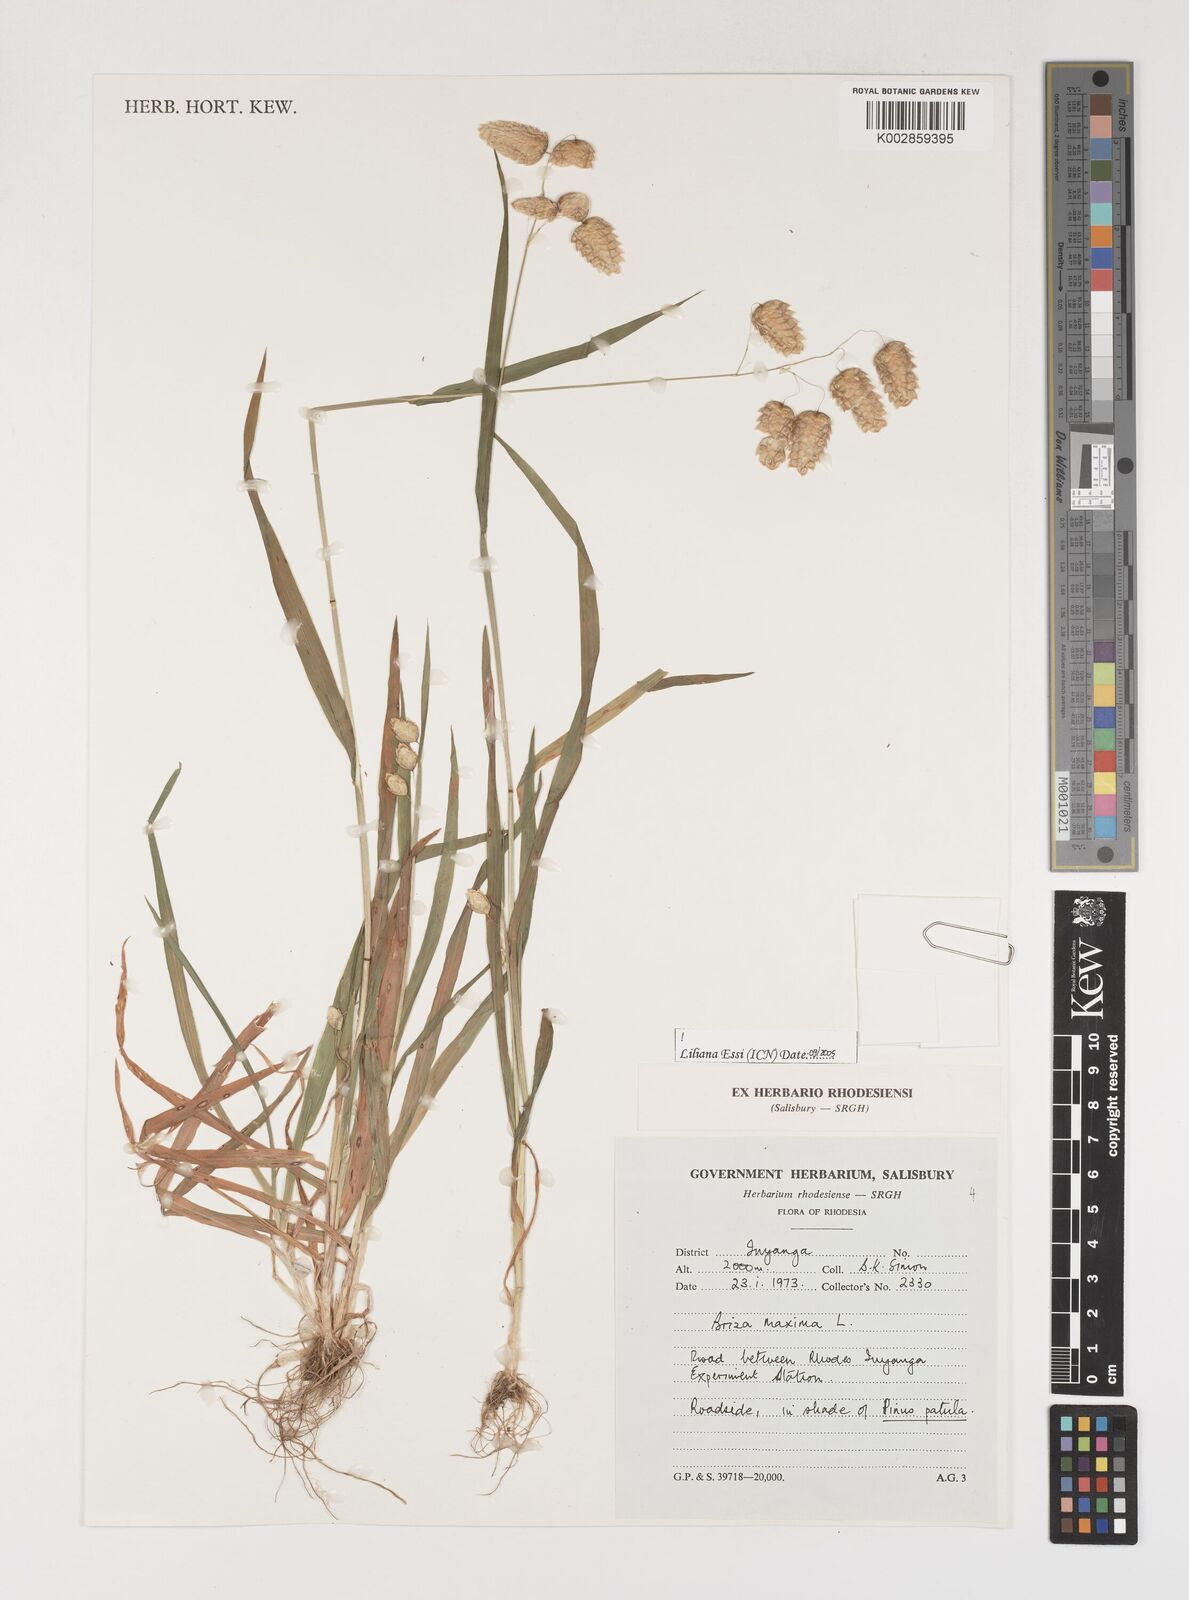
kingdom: Plantae
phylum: Tracheophyta
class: Liliopsida
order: Poales
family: Poaceae
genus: Briza
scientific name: Briza maxima
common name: Big quakinggrass
